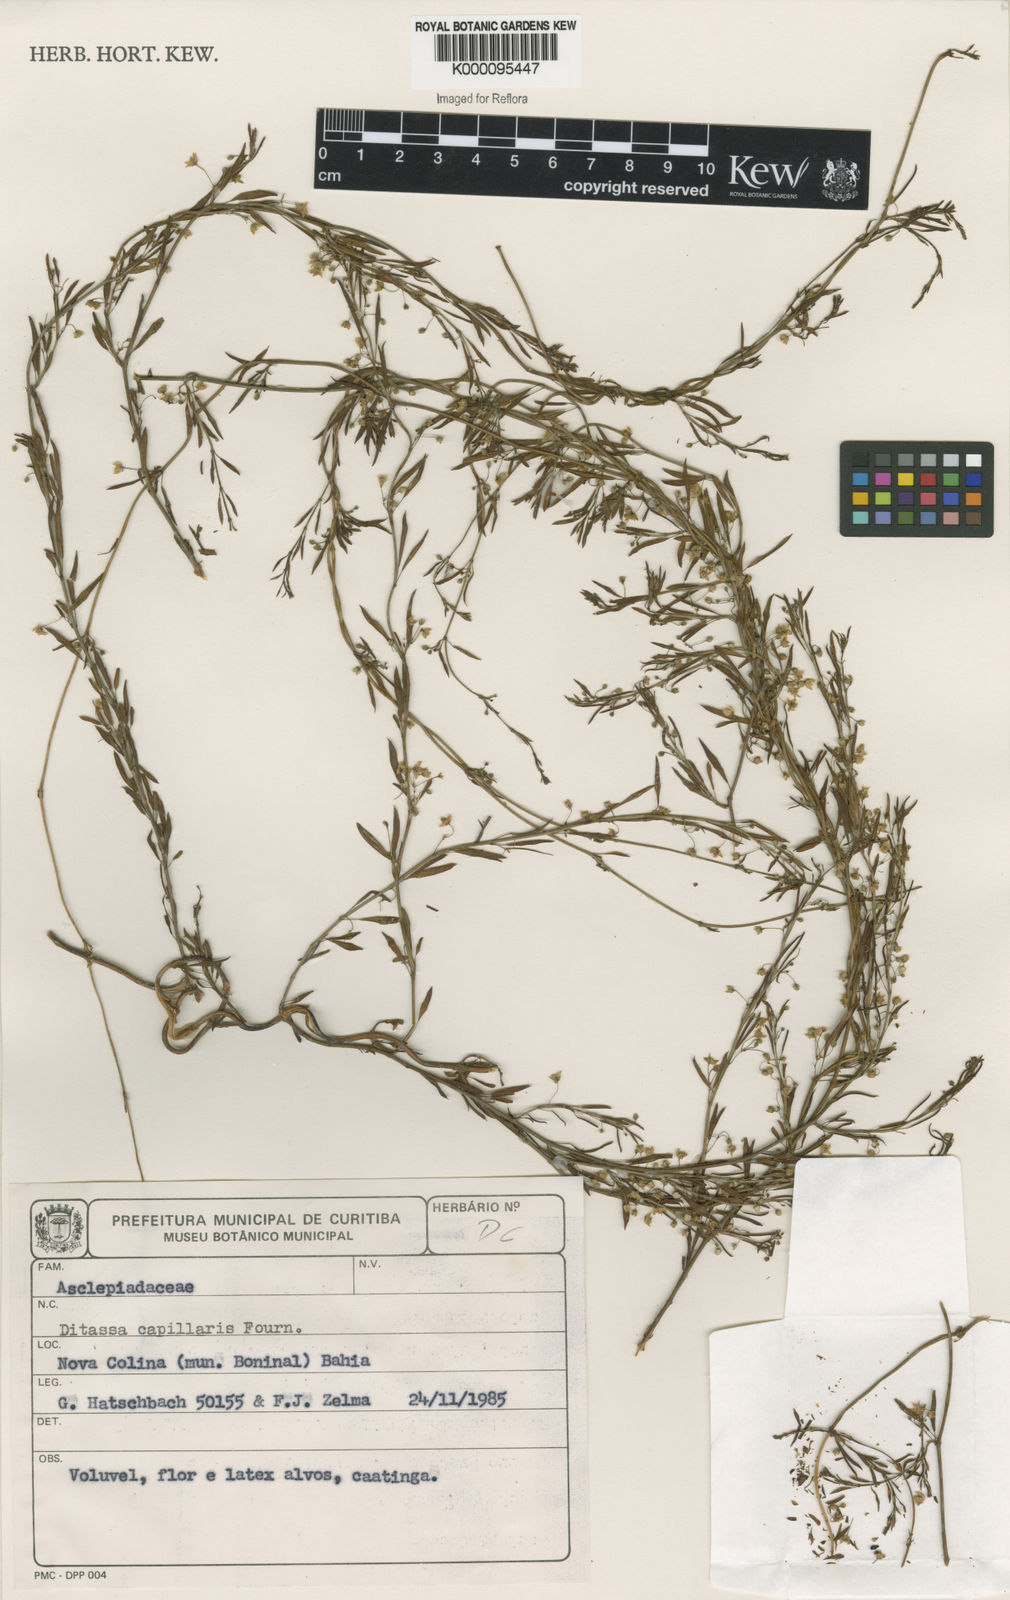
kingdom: Plantae
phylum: Tracheophyta
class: Magnoliopsida
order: Gentianales
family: Apocynaceae
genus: Ditassa
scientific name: Ditassa capillaris
